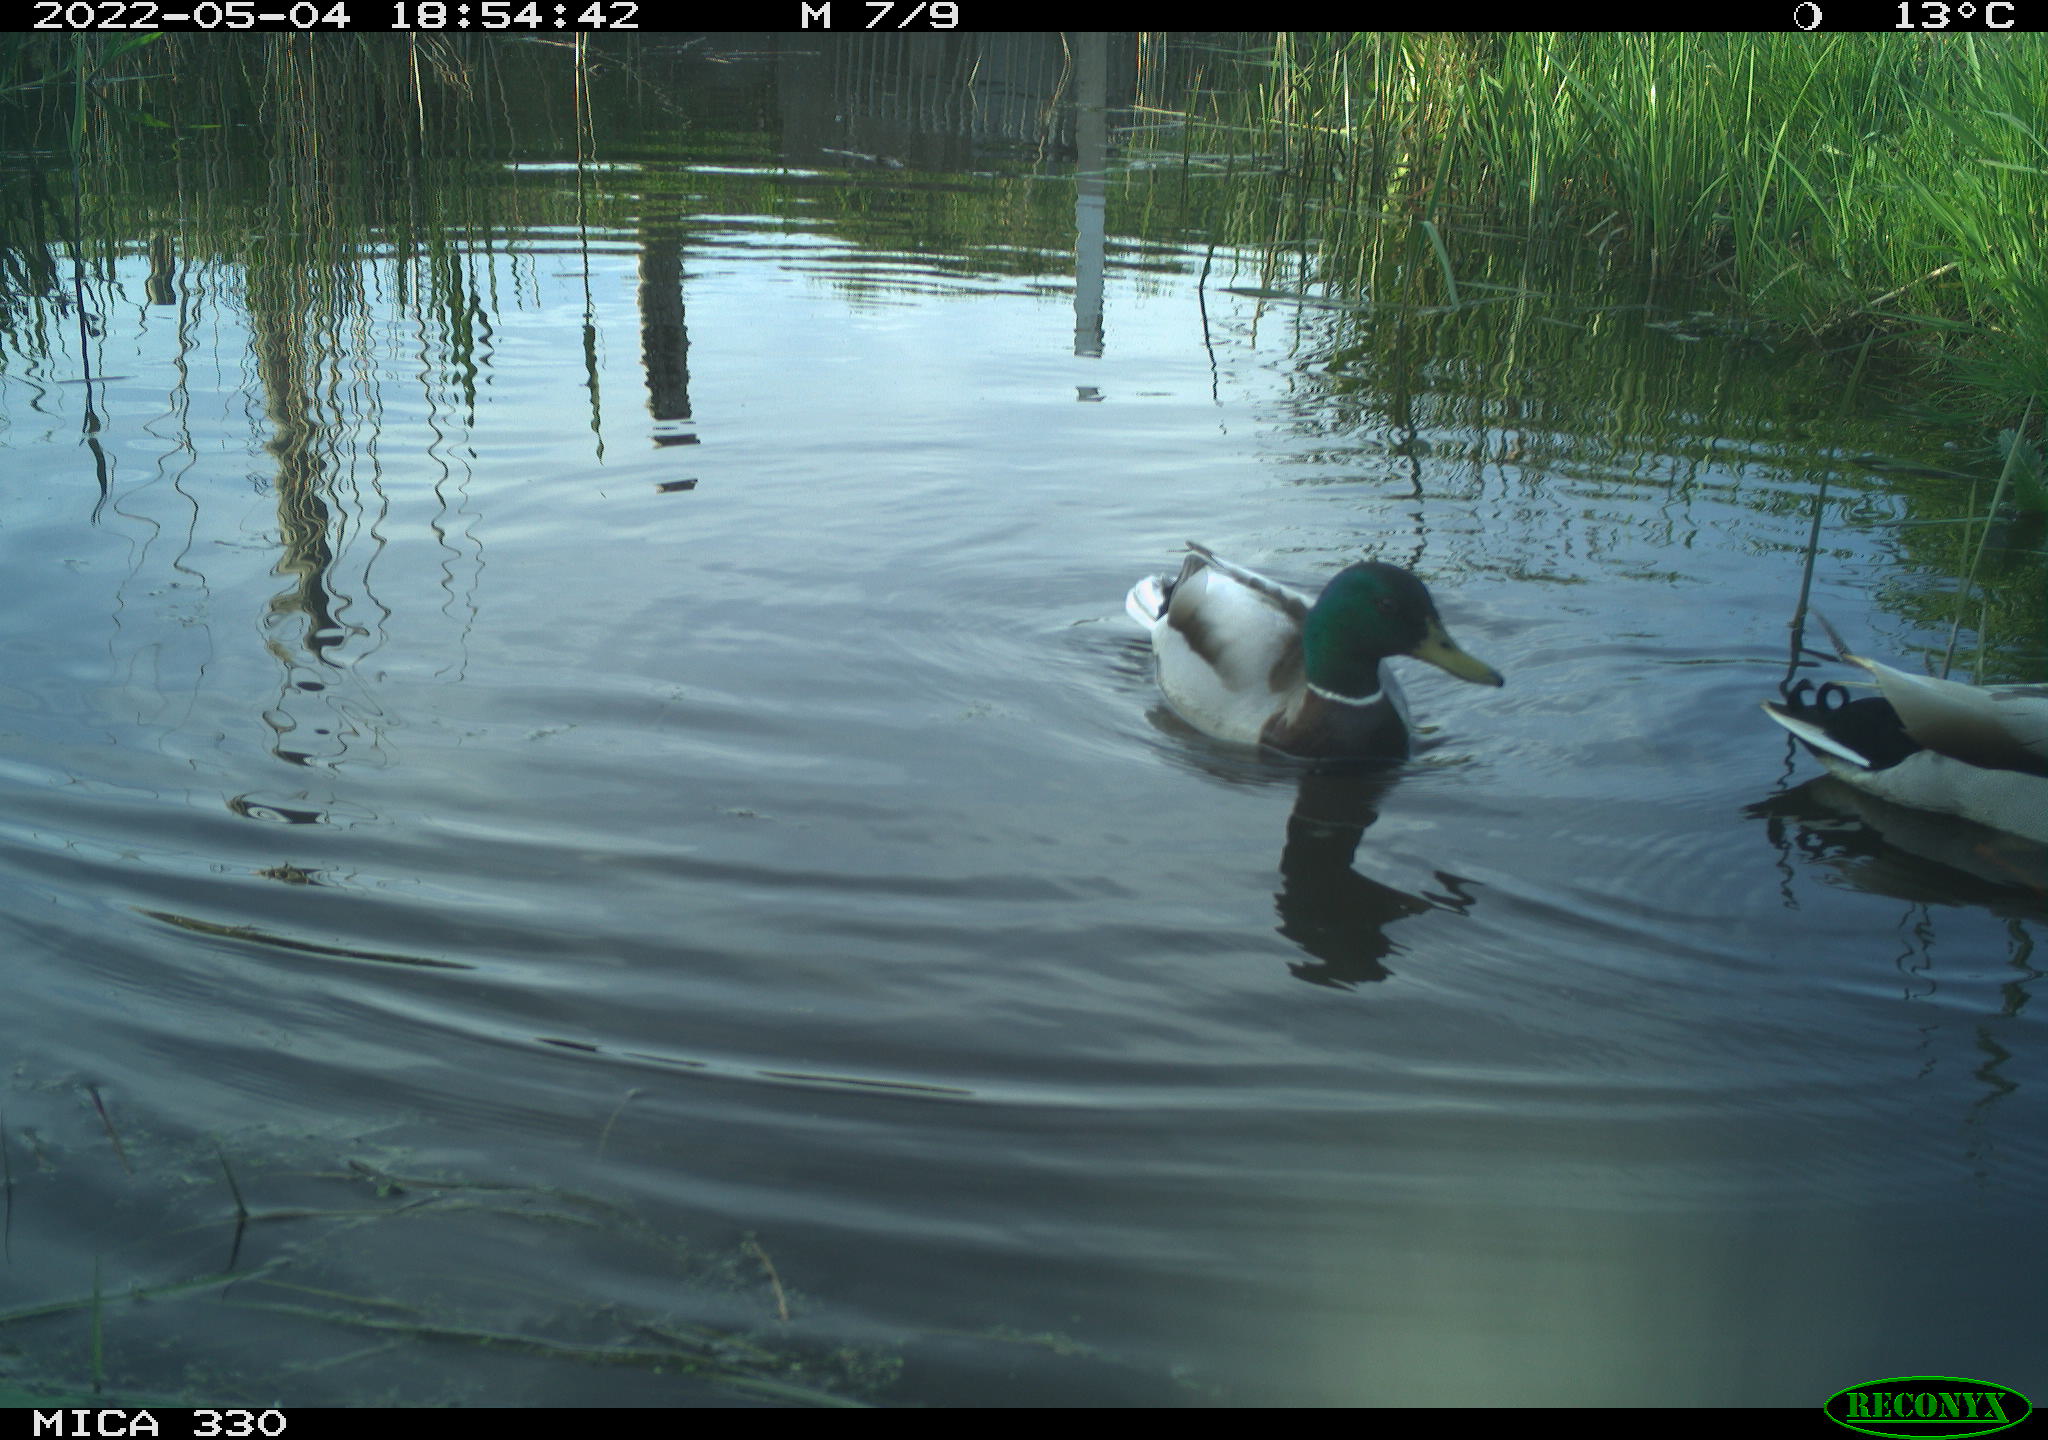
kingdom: Animalia
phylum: Chordata
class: Aves
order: Anseriformes
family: Anatidae
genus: Anas
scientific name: Anas platyrhynchos
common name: Mallard
